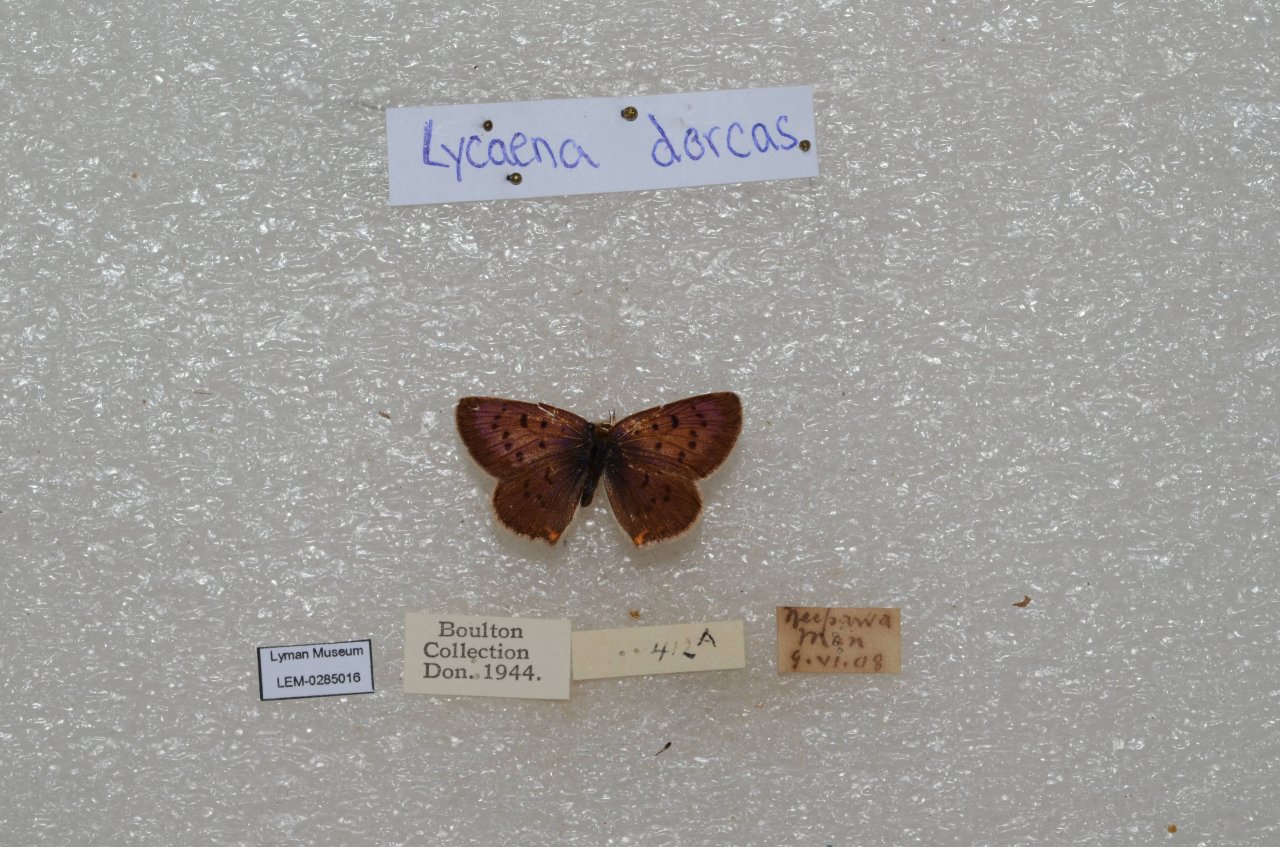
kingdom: Animalia
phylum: Arthropoda
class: Insecta
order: Lepidoptera
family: Lycaenidae
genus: Epidemia
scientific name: Epidemia dorcas
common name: Dorcas Copper
